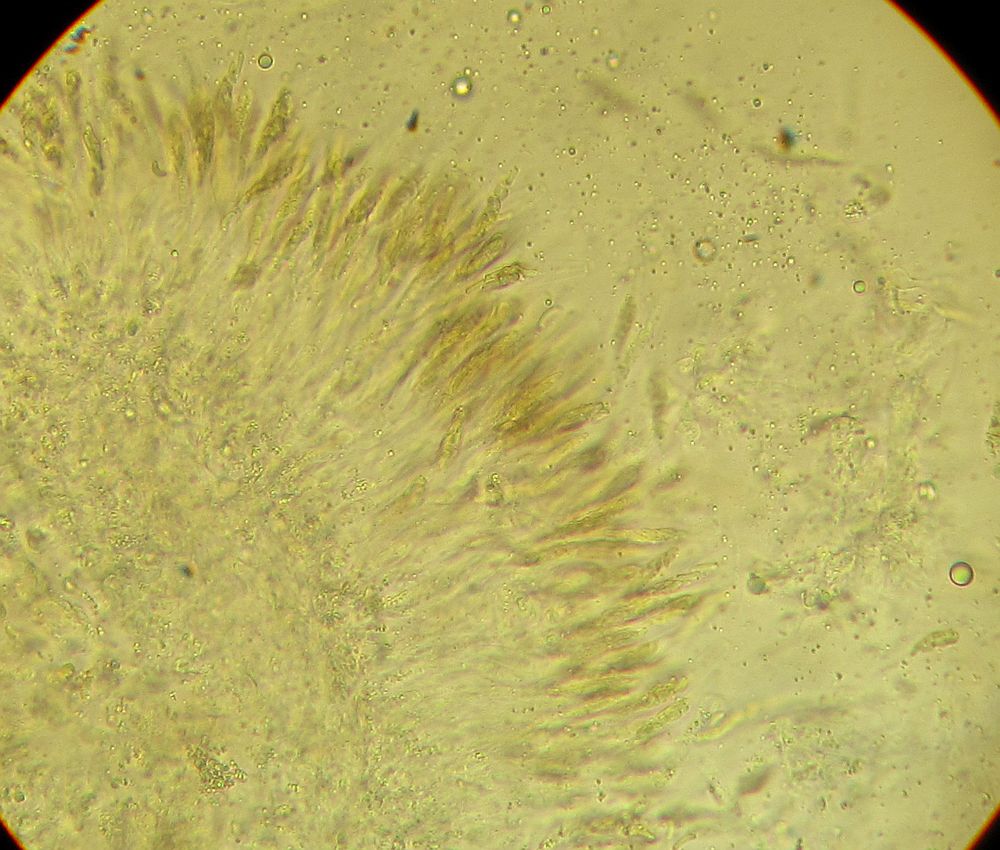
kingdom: Fungi
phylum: Ascomycota
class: Sordariomycetes
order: Xylariales
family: Diatrypaceae
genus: Eutypella
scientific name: Eutypella prunastri
